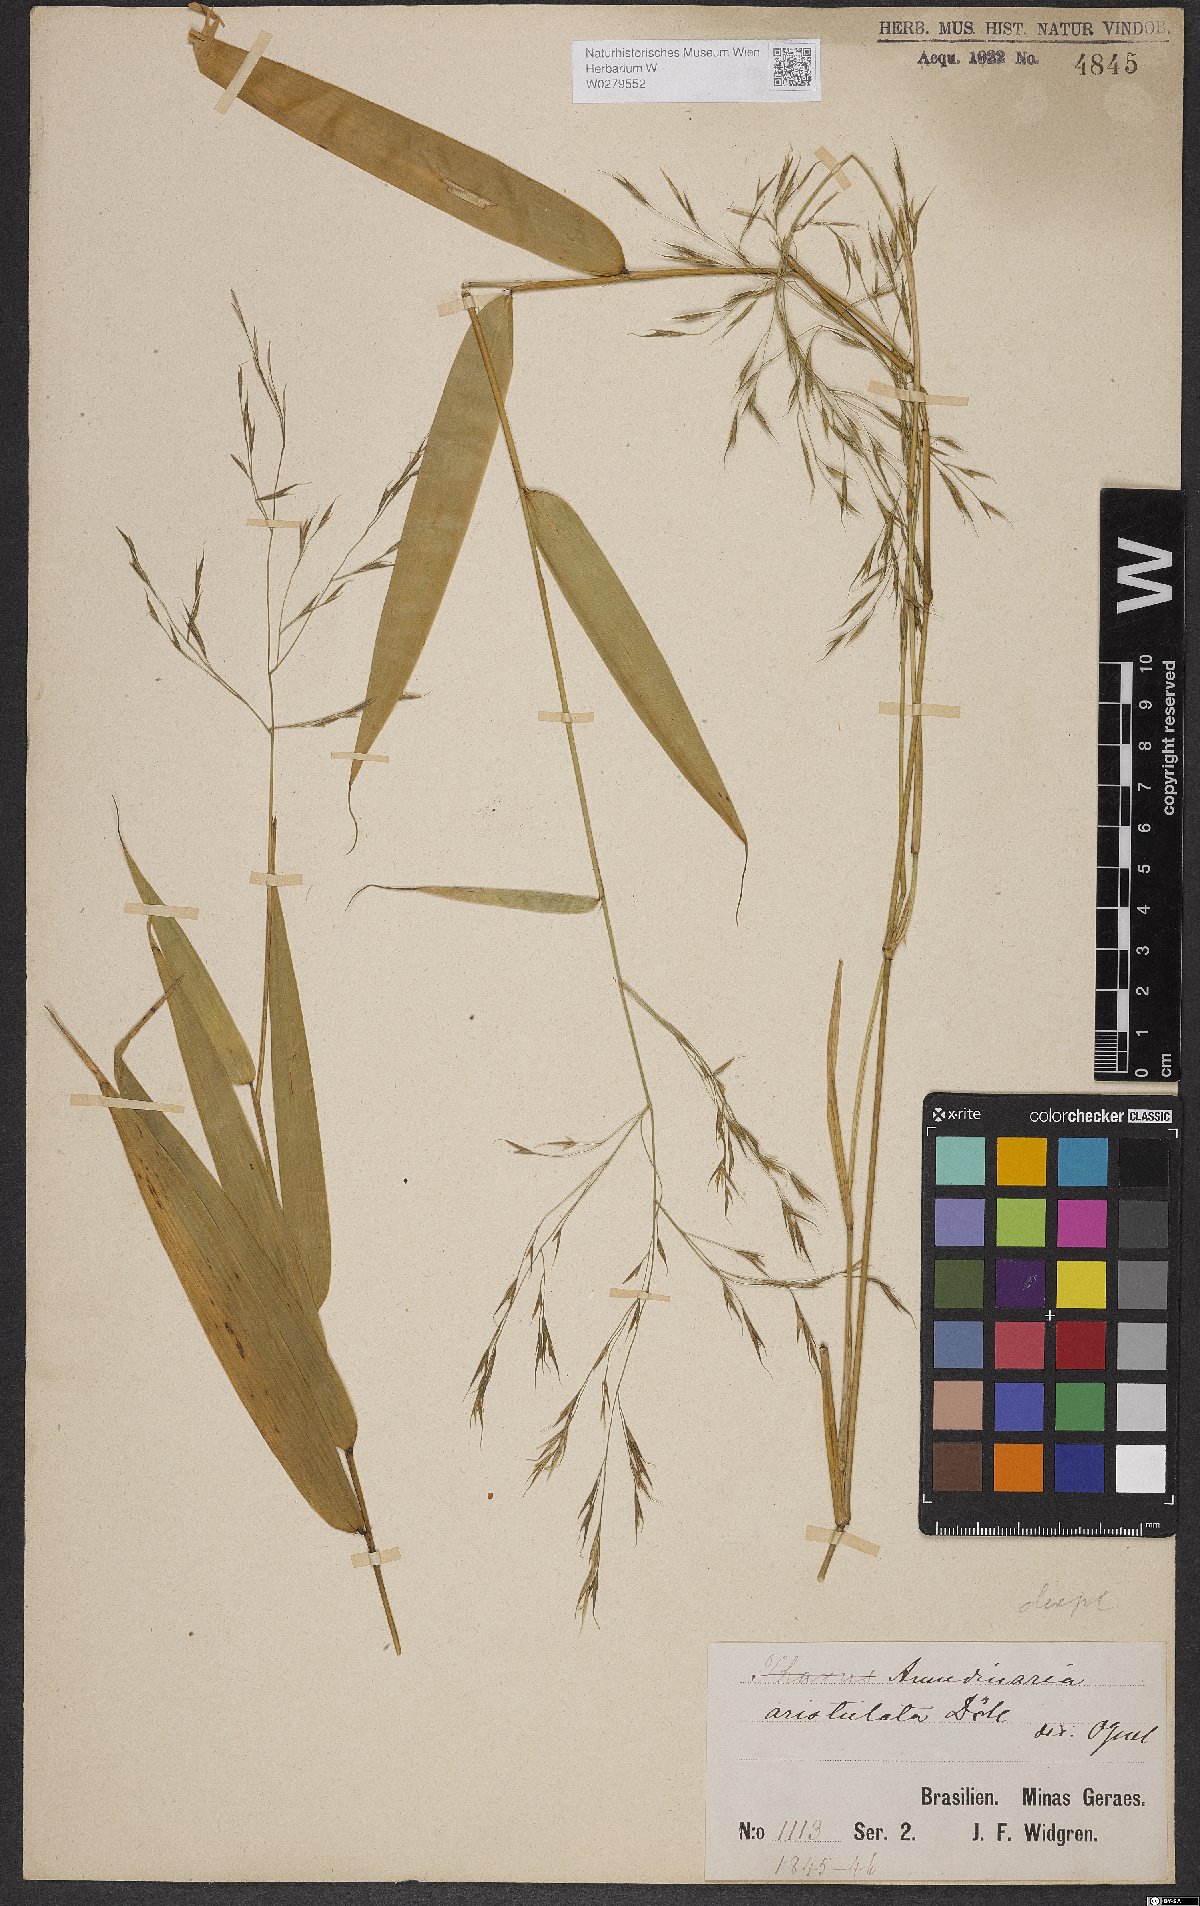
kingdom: Plantae
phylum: Tracheophyta
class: Liliopsida
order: Poales
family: Poaceae
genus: Aulonemia
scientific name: Aulonemia aristulata
